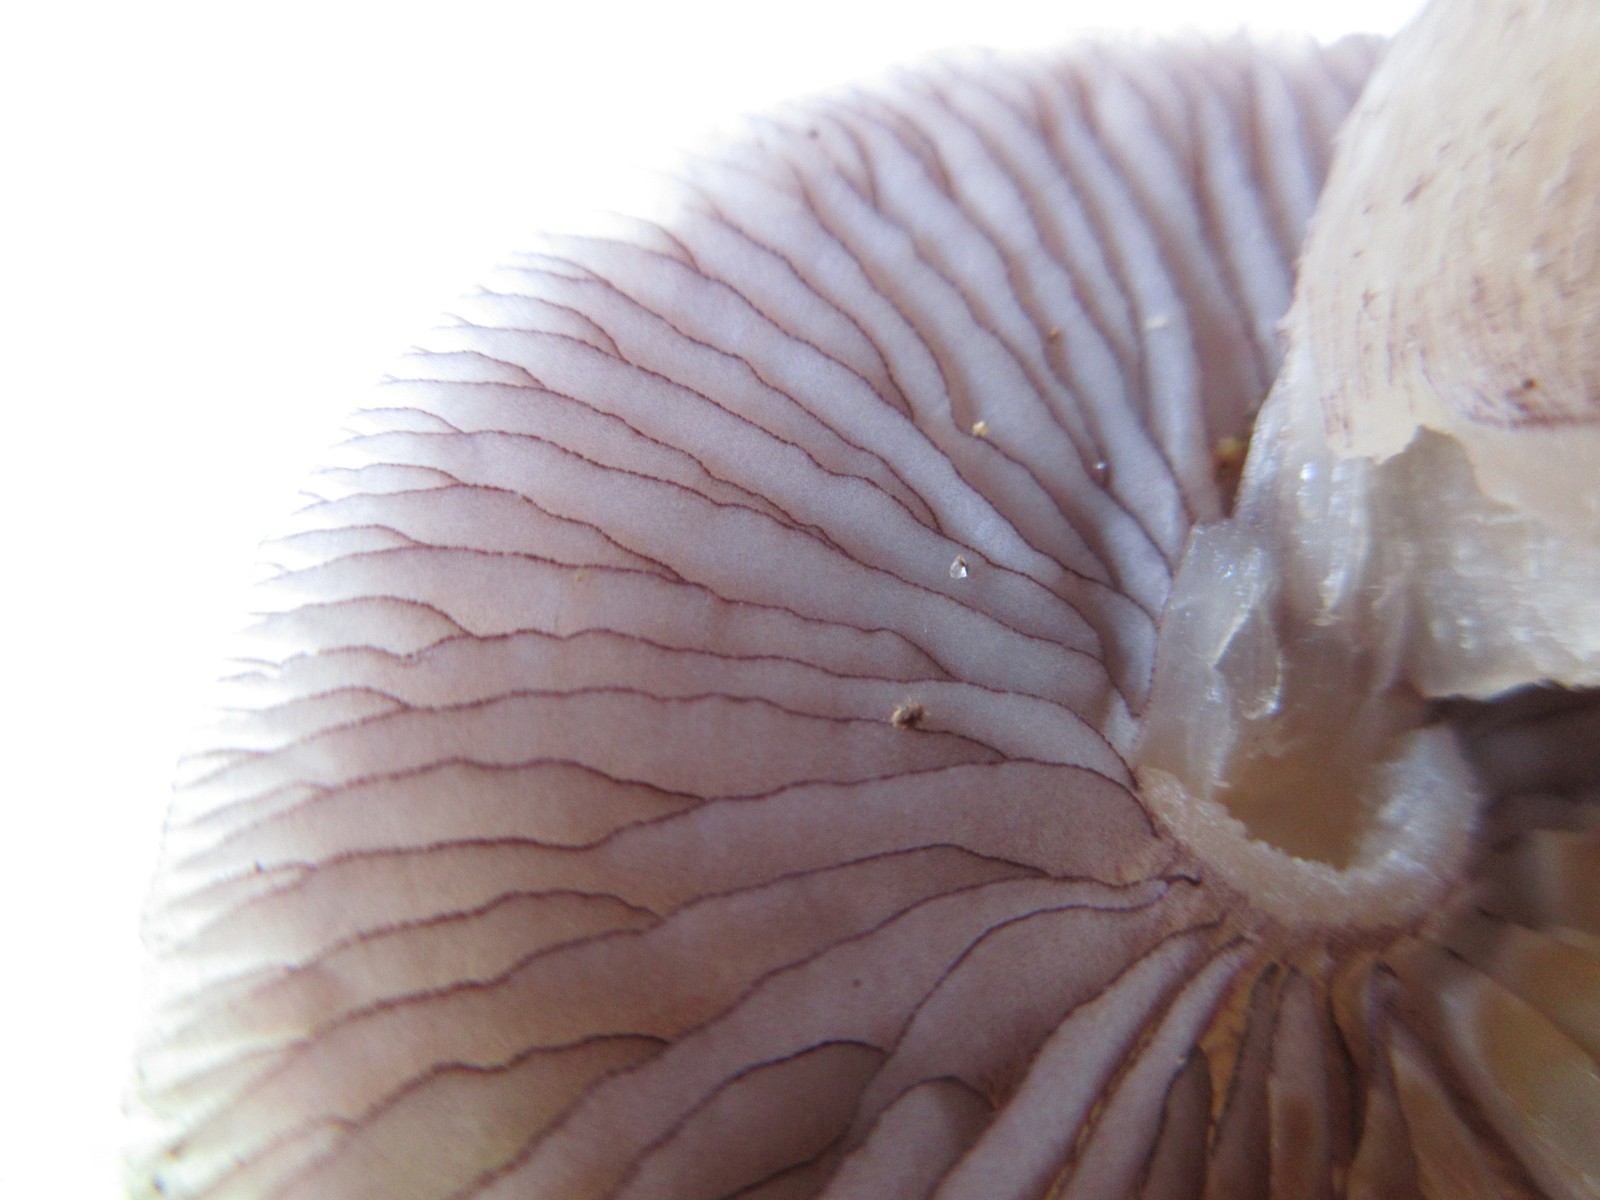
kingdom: Fungi
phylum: Basidiomycota
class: Agaricomycetes
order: Agaricales
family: Mycenaceae
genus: Mycena
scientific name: Mycena pelianthina
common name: mørkbladet huesvamp
